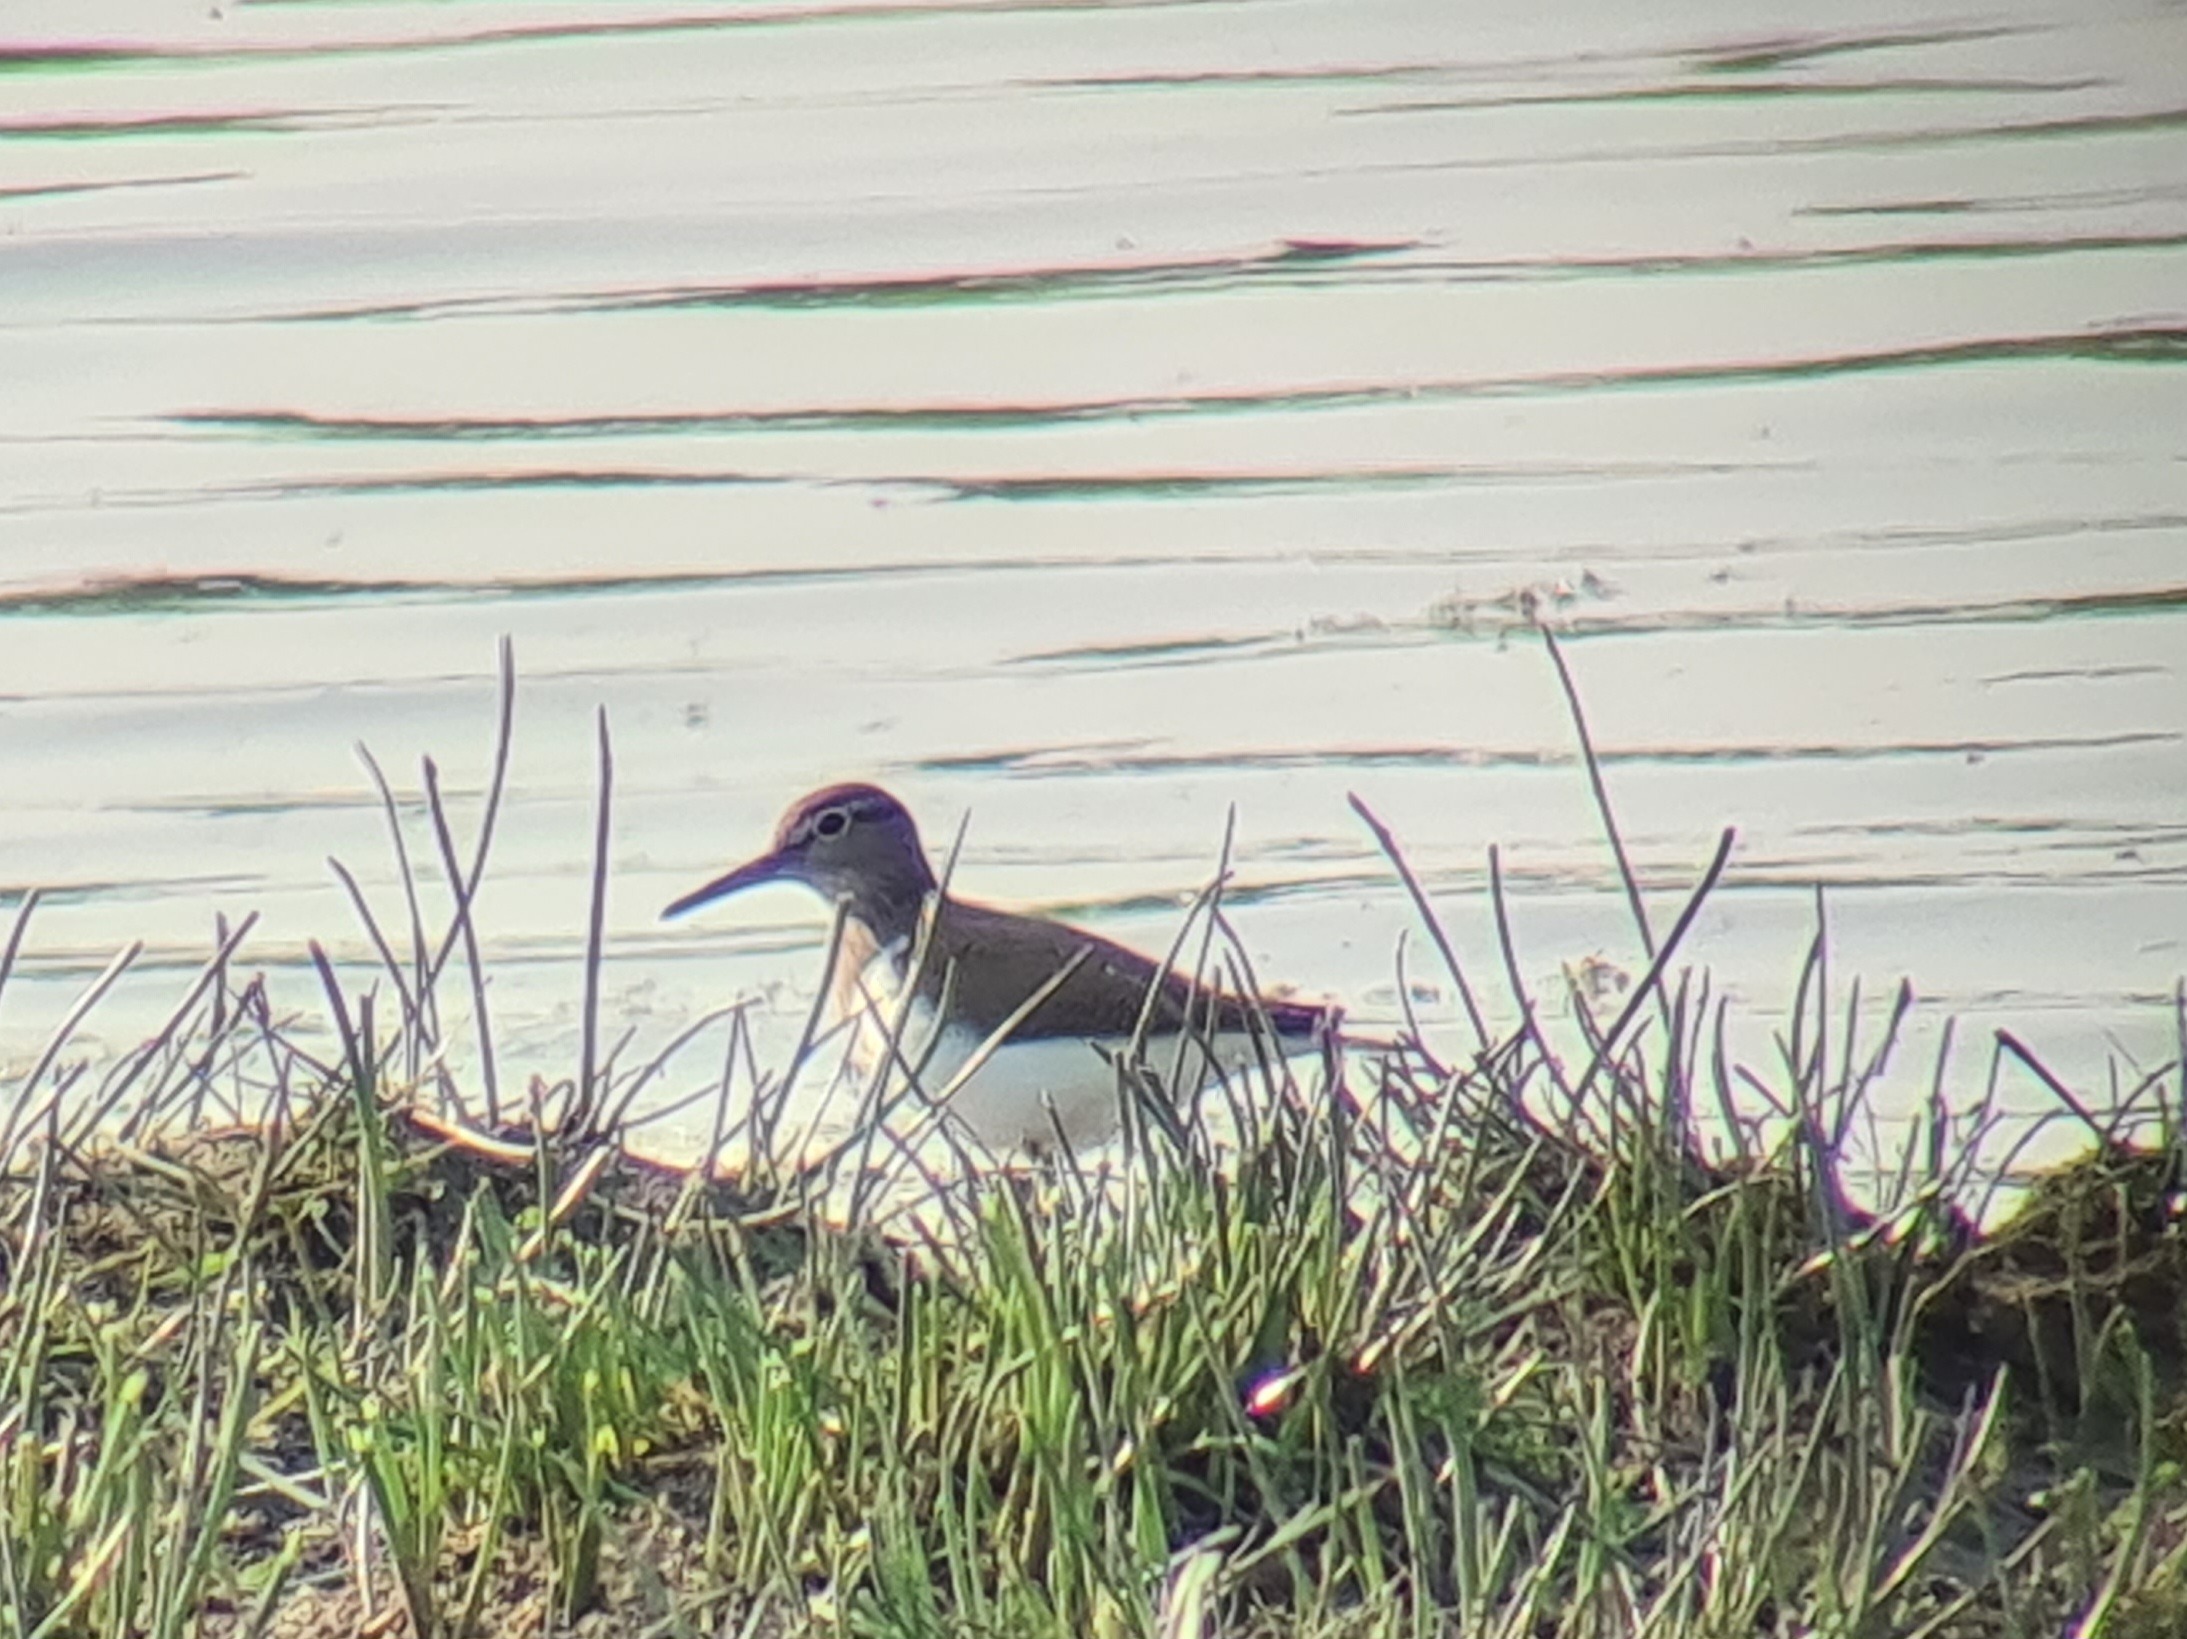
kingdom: Animalia
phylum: Chordata
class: Aves
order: Charadriiformes
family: Scolopacidae
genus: Actitis
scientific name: Actitis hypoleucos
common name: Mudderklire
